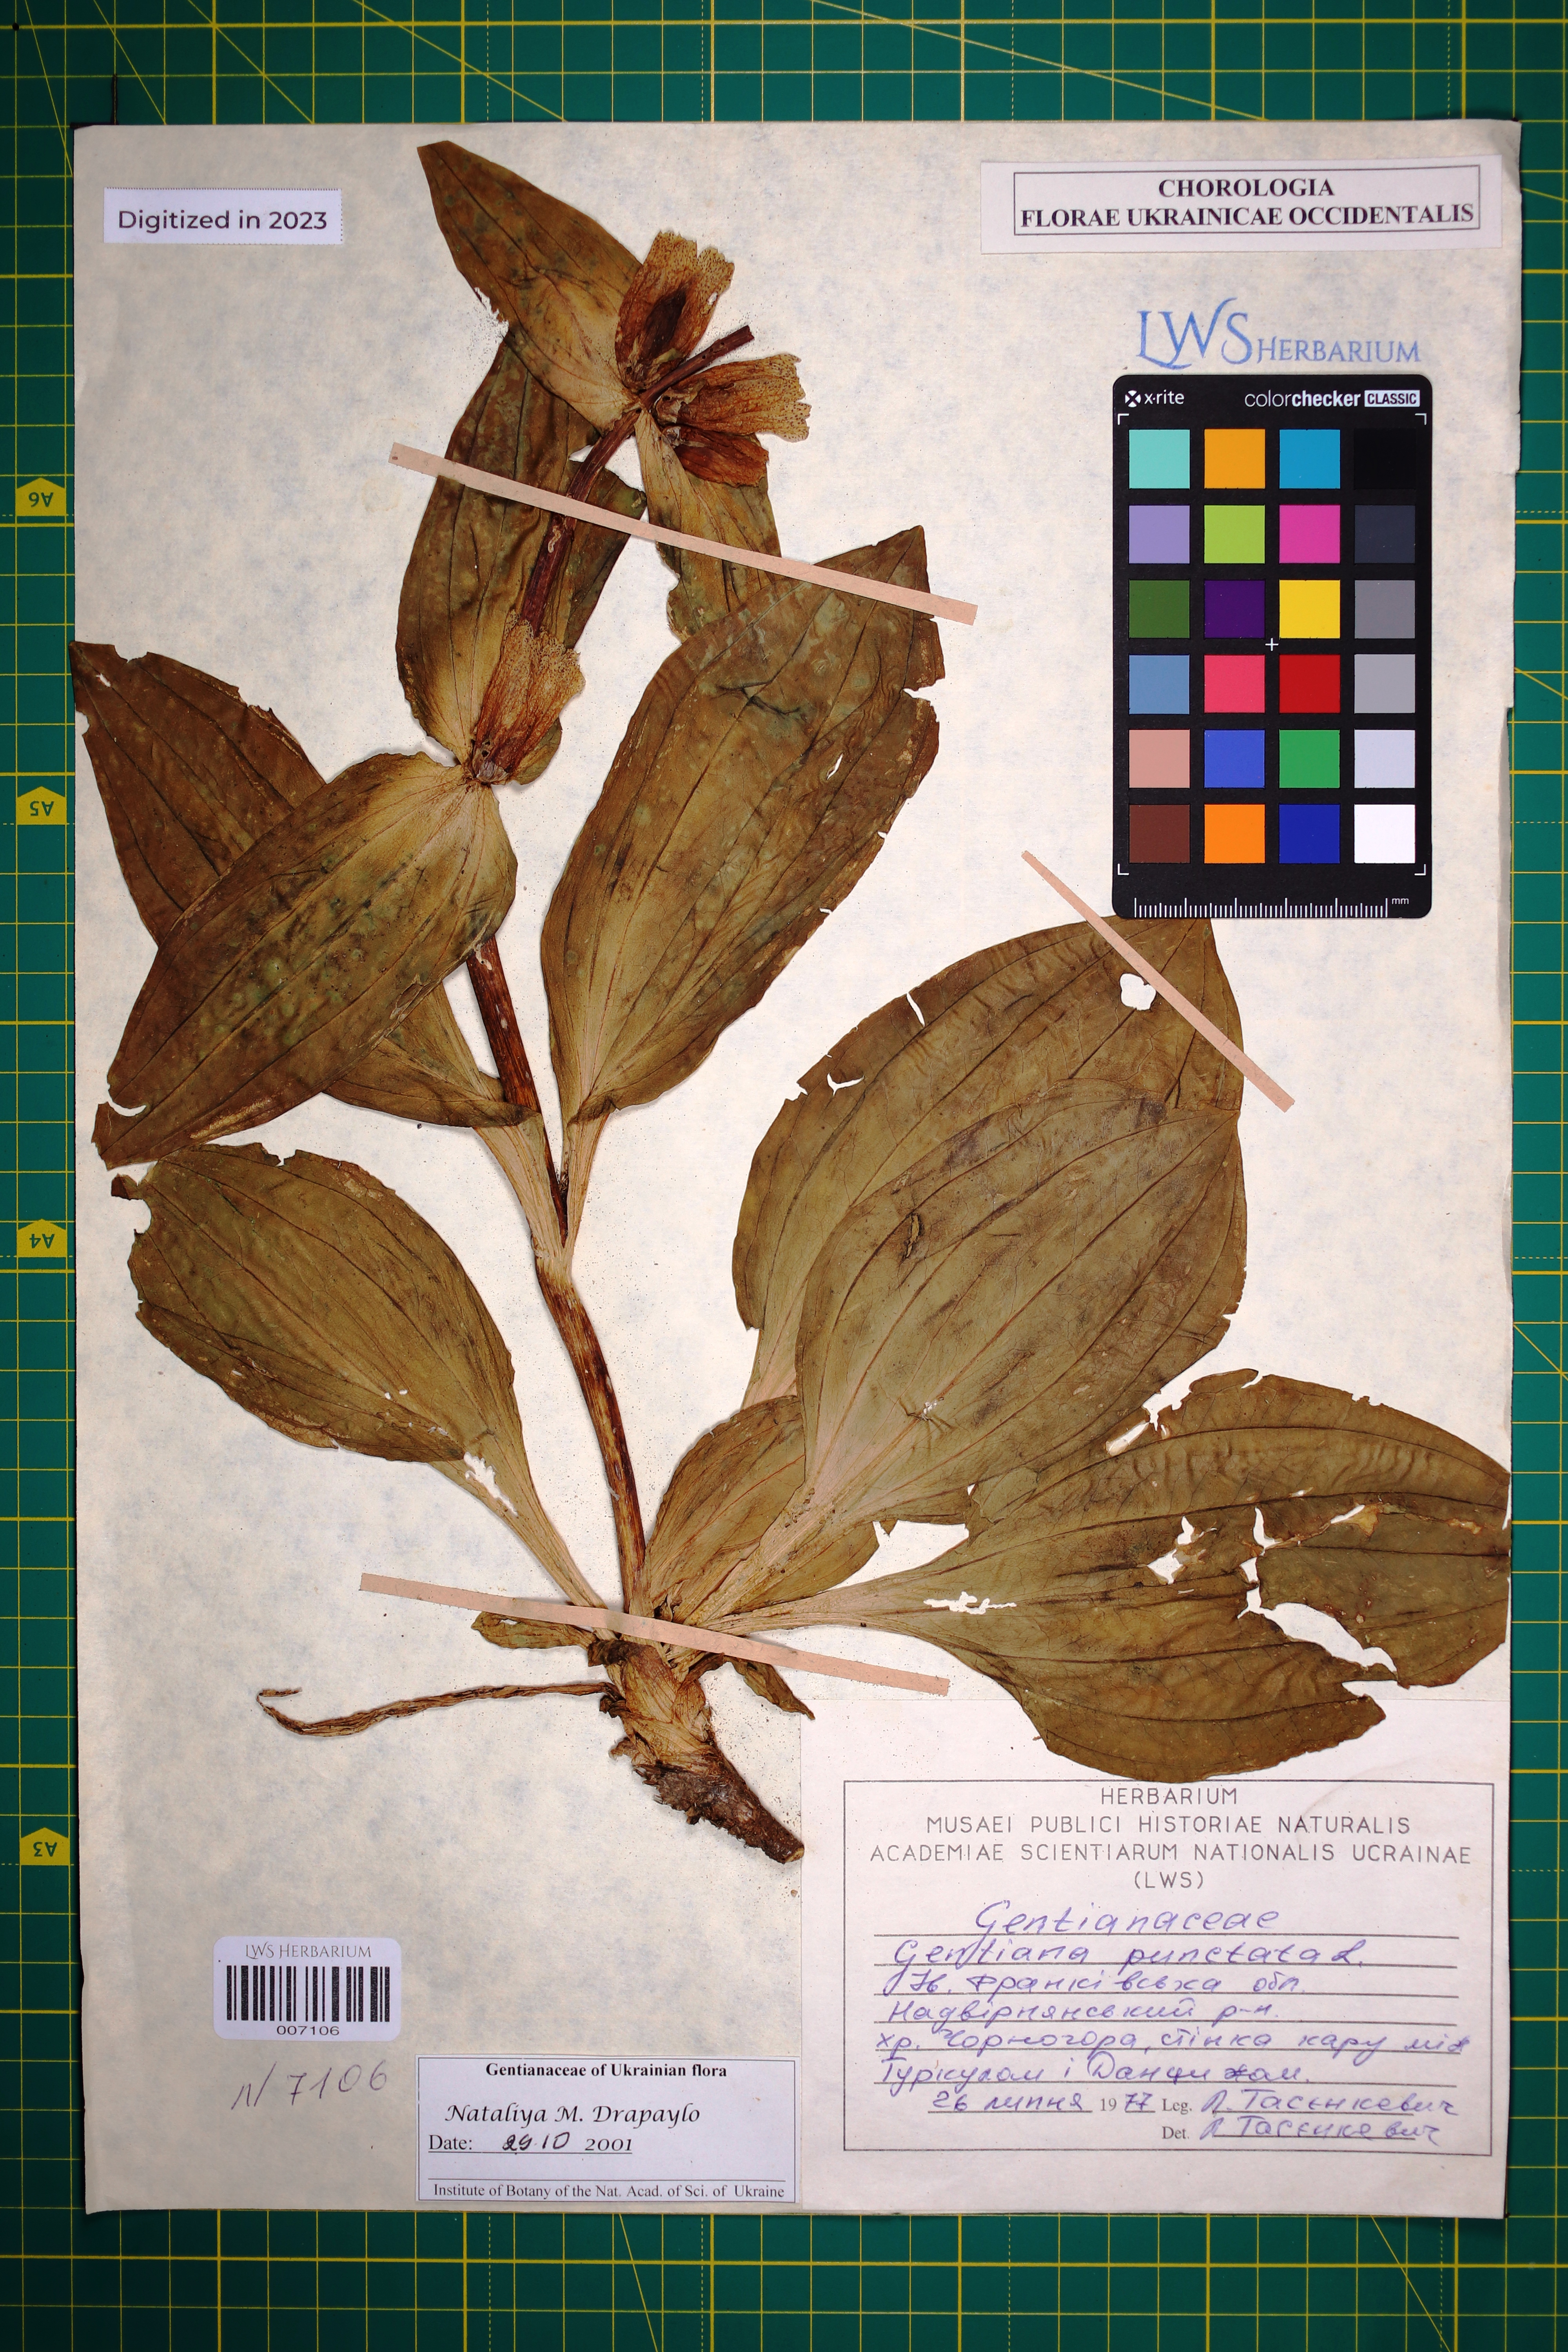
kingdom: Plantae
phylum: Tracheophyta
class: Magnoliopsida
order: Gentianales
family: Gentianaceae
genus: Gentiana
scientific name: Gentiana punctata
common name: Spotted gentian
